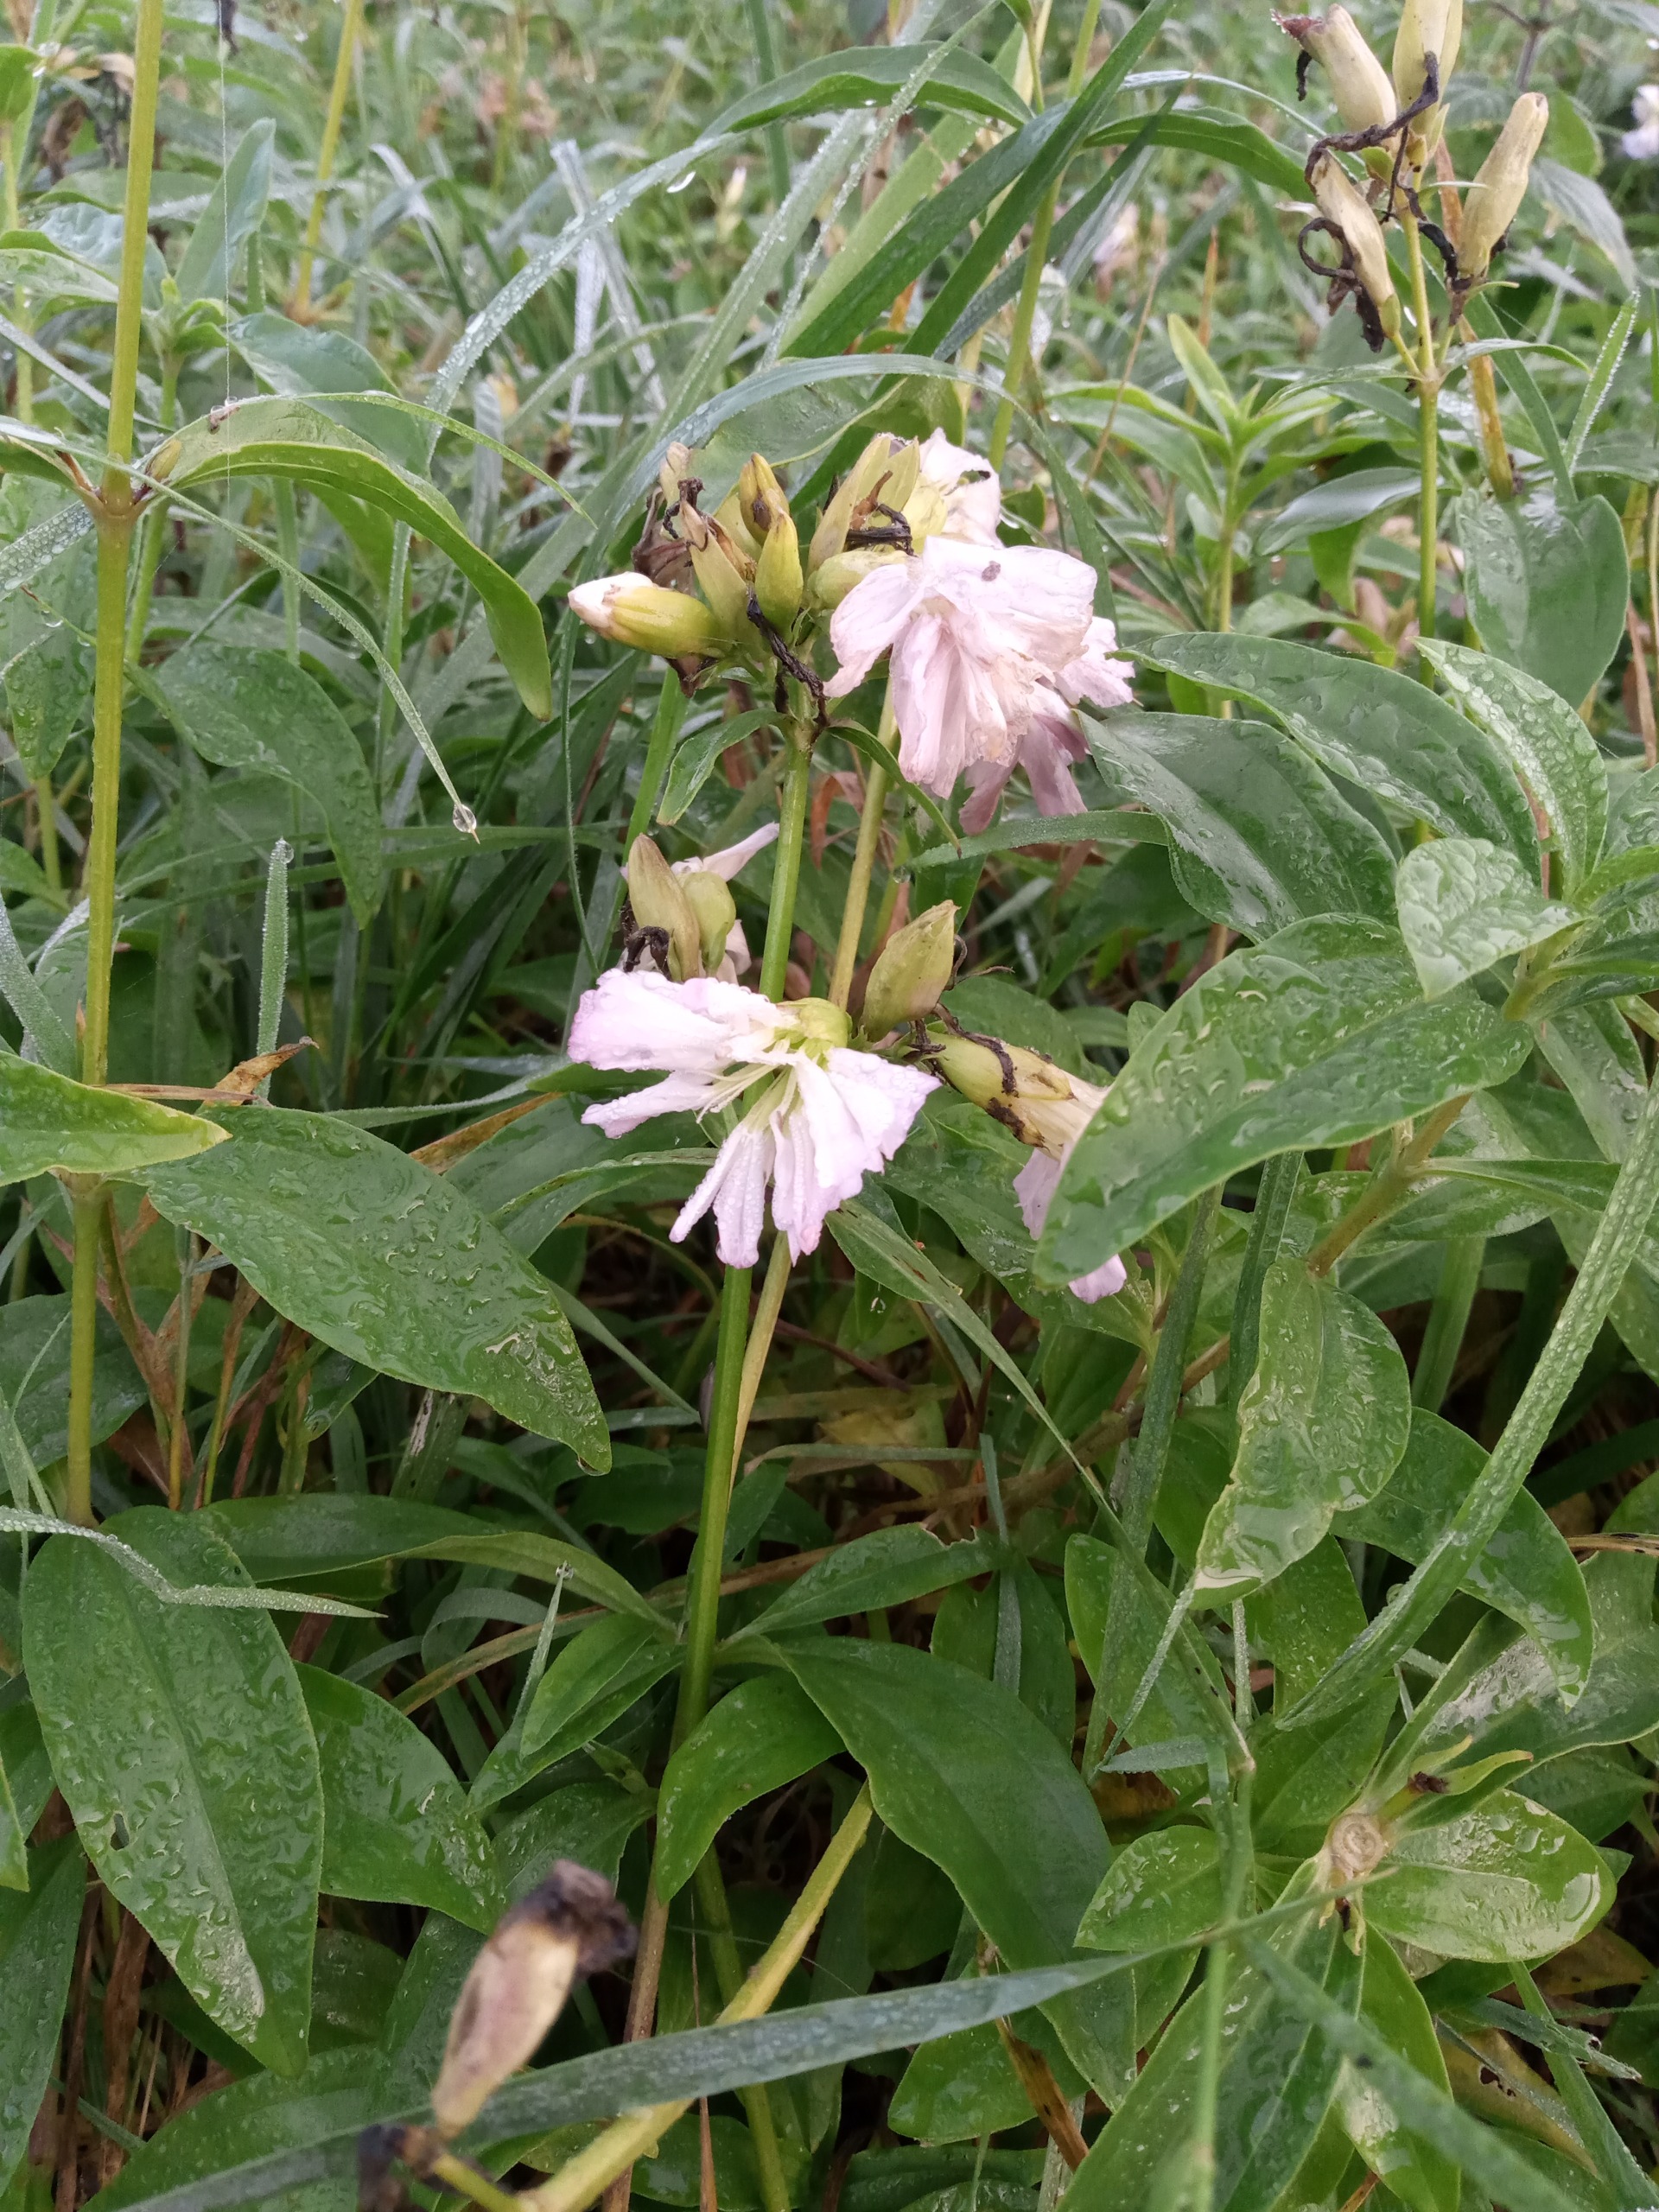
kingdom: Plantae
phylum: Tracheophyta
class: Magnoliopsida
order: Caryophyllales
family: Caryophyllaceae
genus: Saponaria
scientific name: Saponaria officinalis
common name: Sæbeurt
